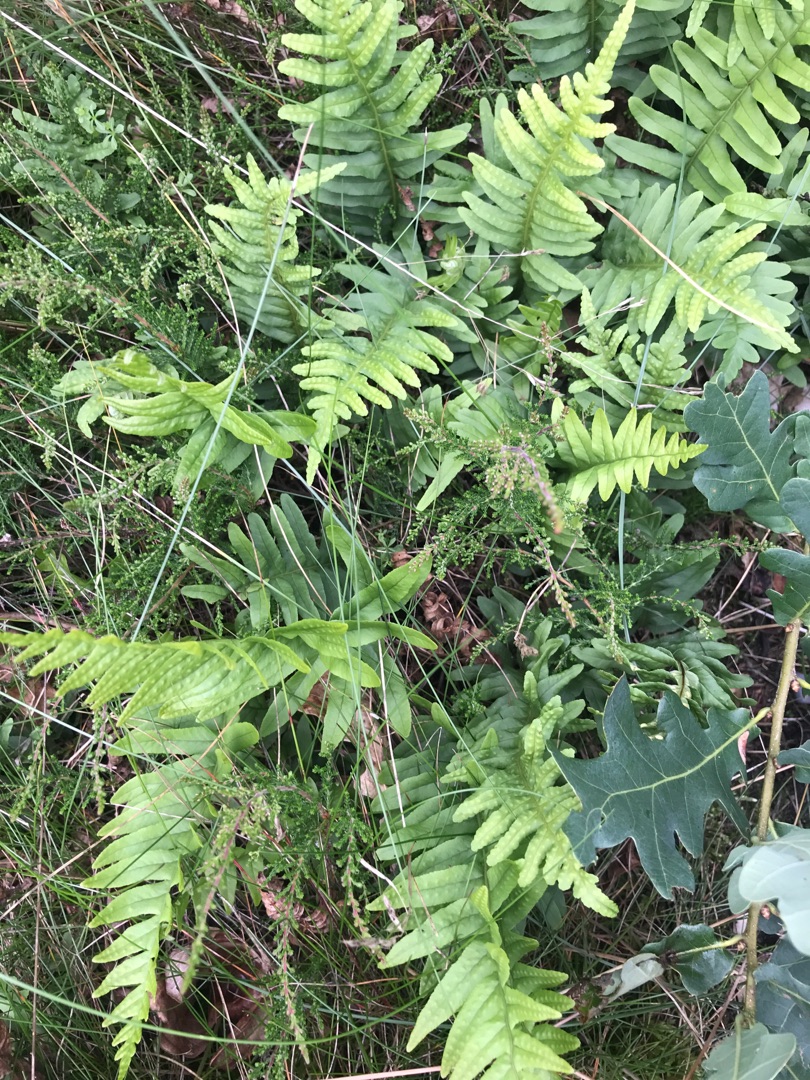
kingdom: Plantae
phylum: Tracheophyta
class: Polypodiopsida
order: Polypodiales
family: Polypodiaceae
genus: Polypodium
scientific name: Polypodium vulgare
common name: Almindelig engelsød
